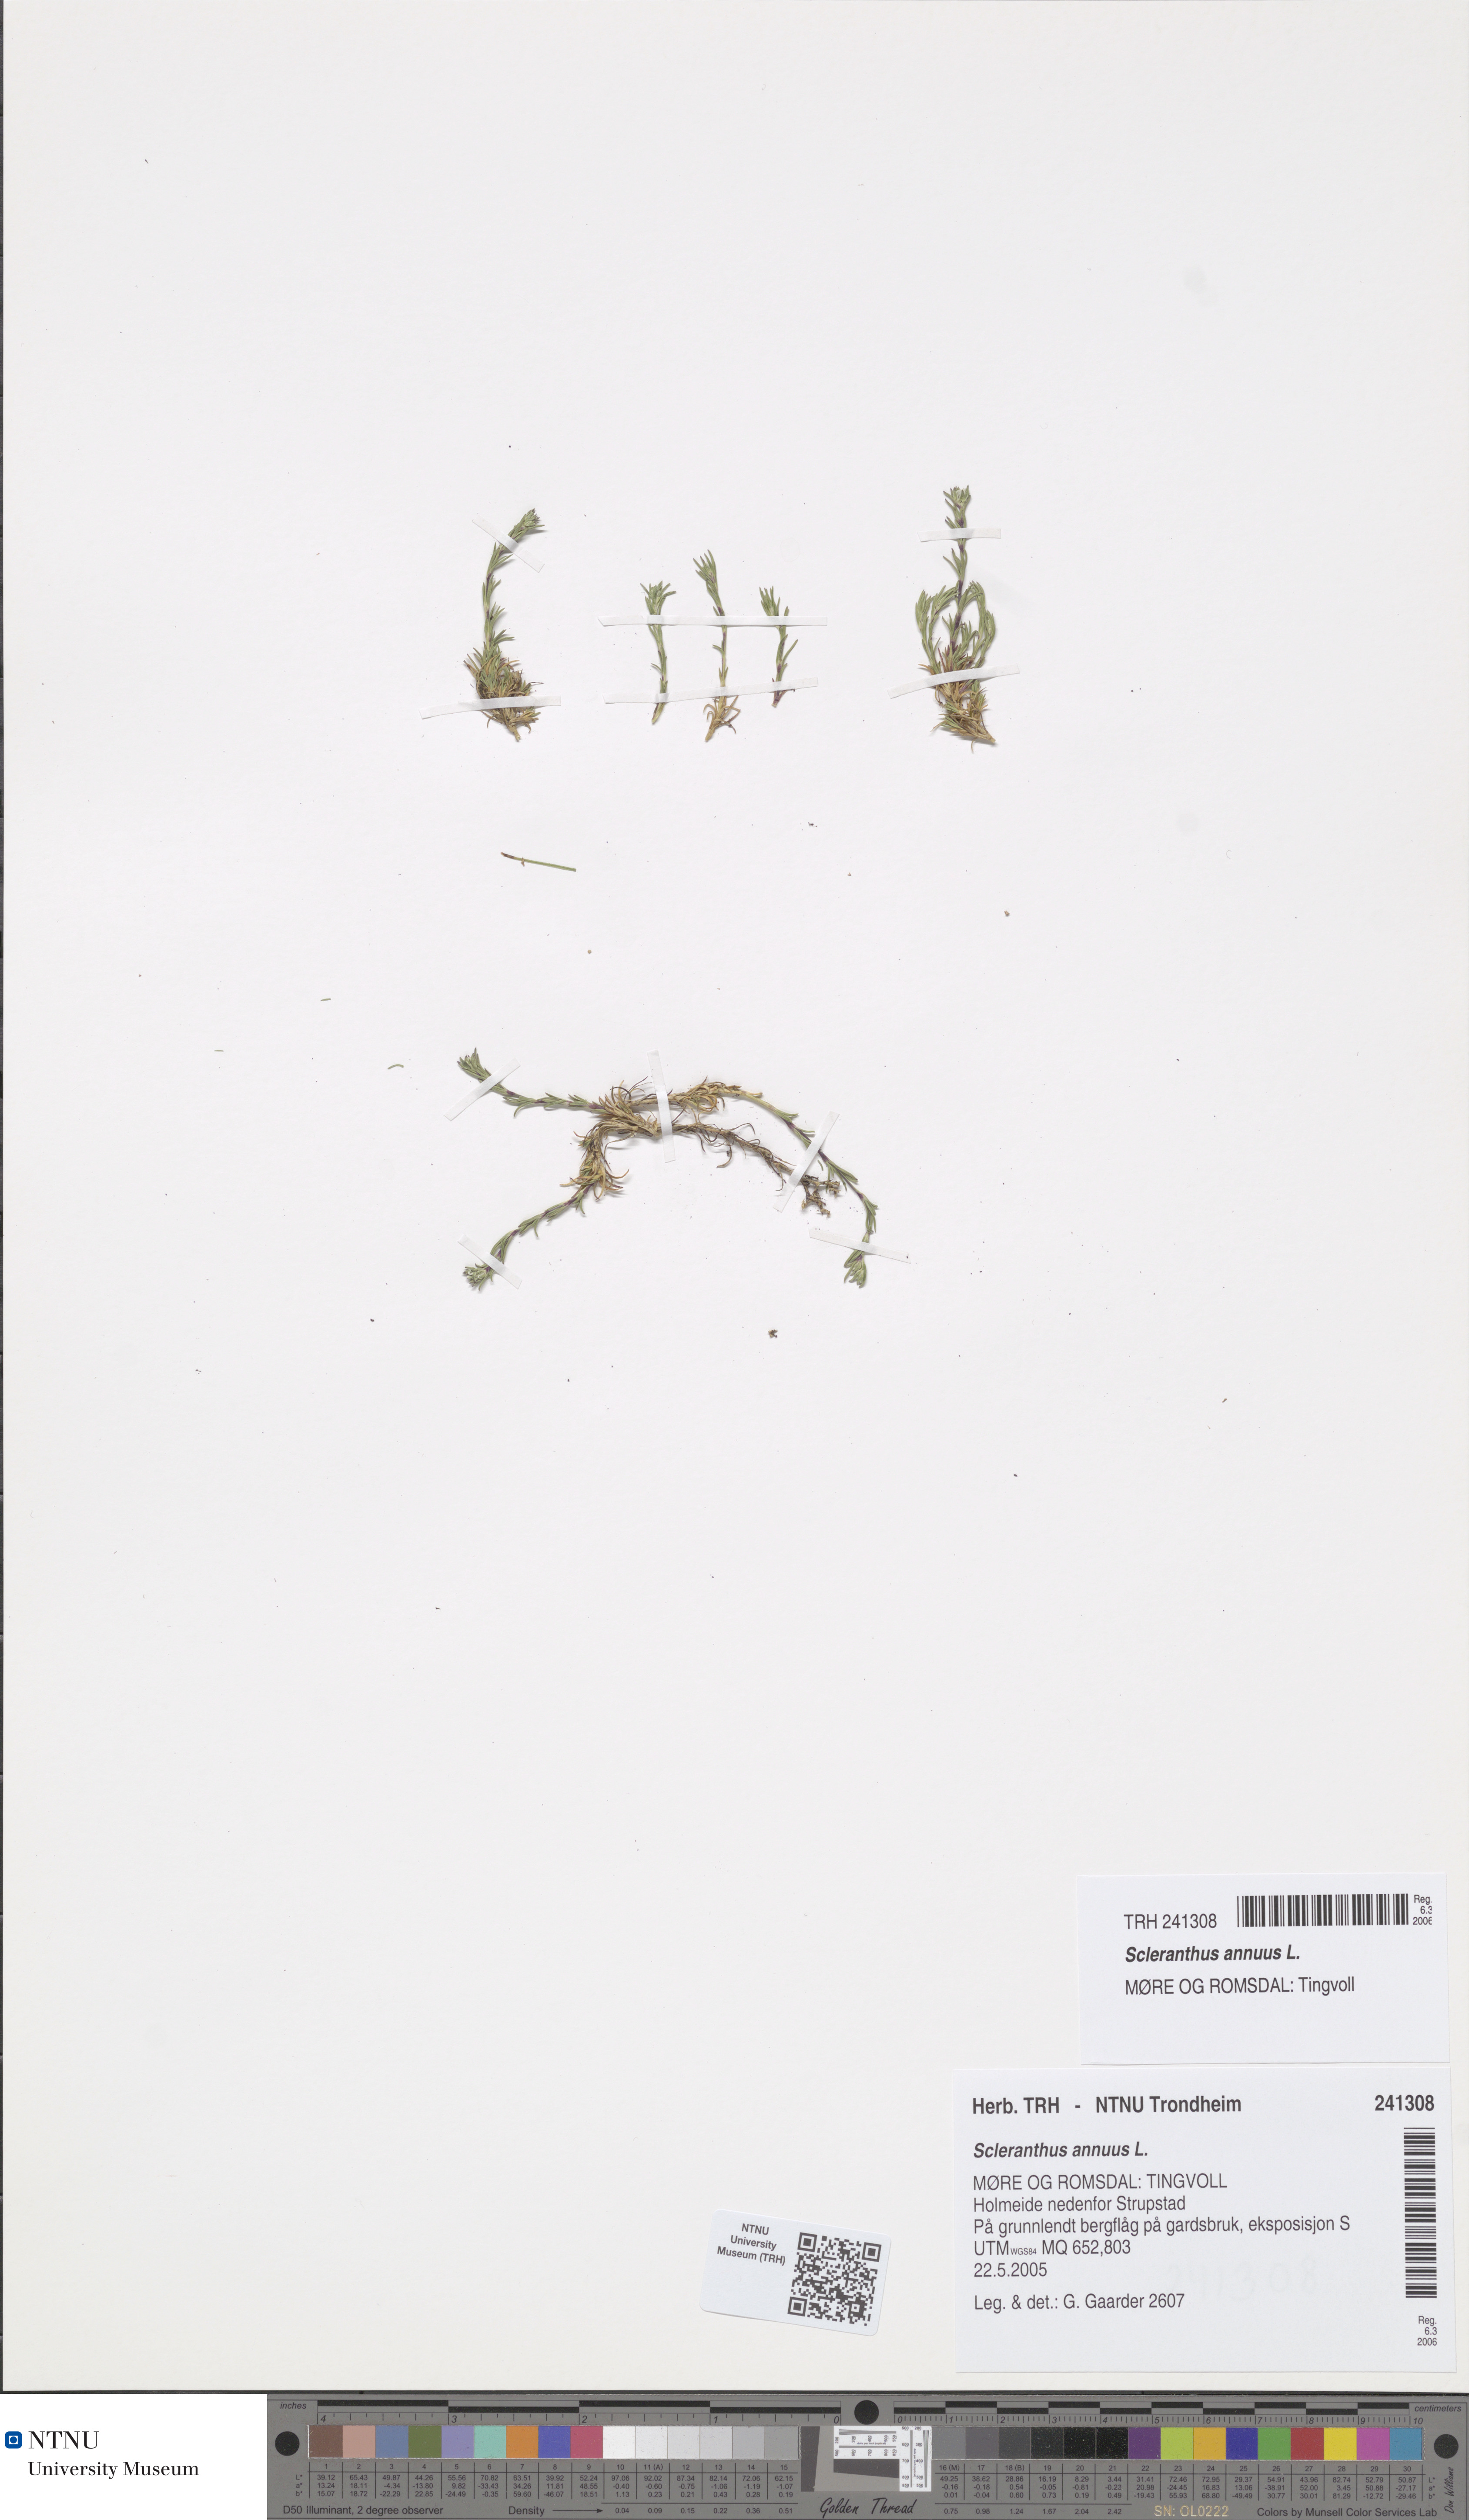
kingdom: Plantae
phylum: Tracheophyta
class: Magnoliopsida
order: Caryophyllales
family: Caryophyllaceae
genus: Scleranthus
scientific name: Scleranthus annuus
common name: Annual knawel
